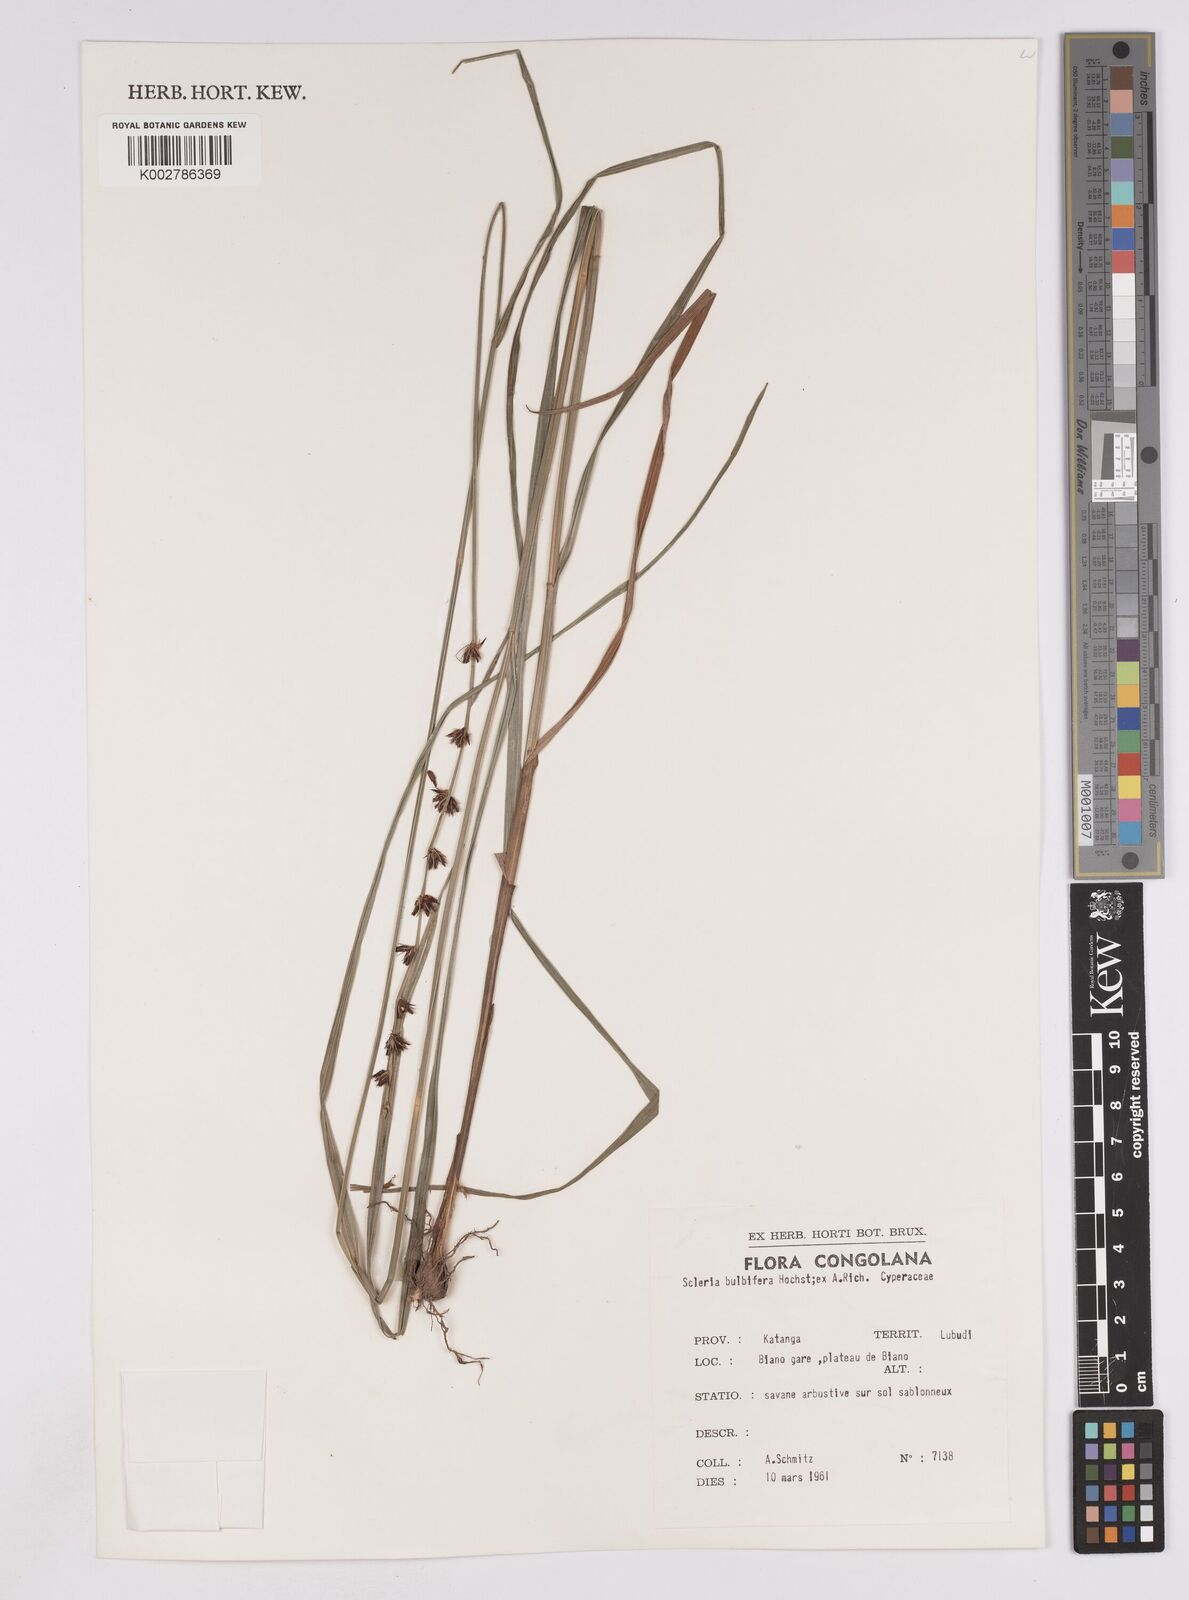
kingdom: Plantae
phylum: Tracheophyta
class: Liliopsida
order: Poales
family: Cyperaceae
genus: Scleria
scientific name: Scleria bulbifera
